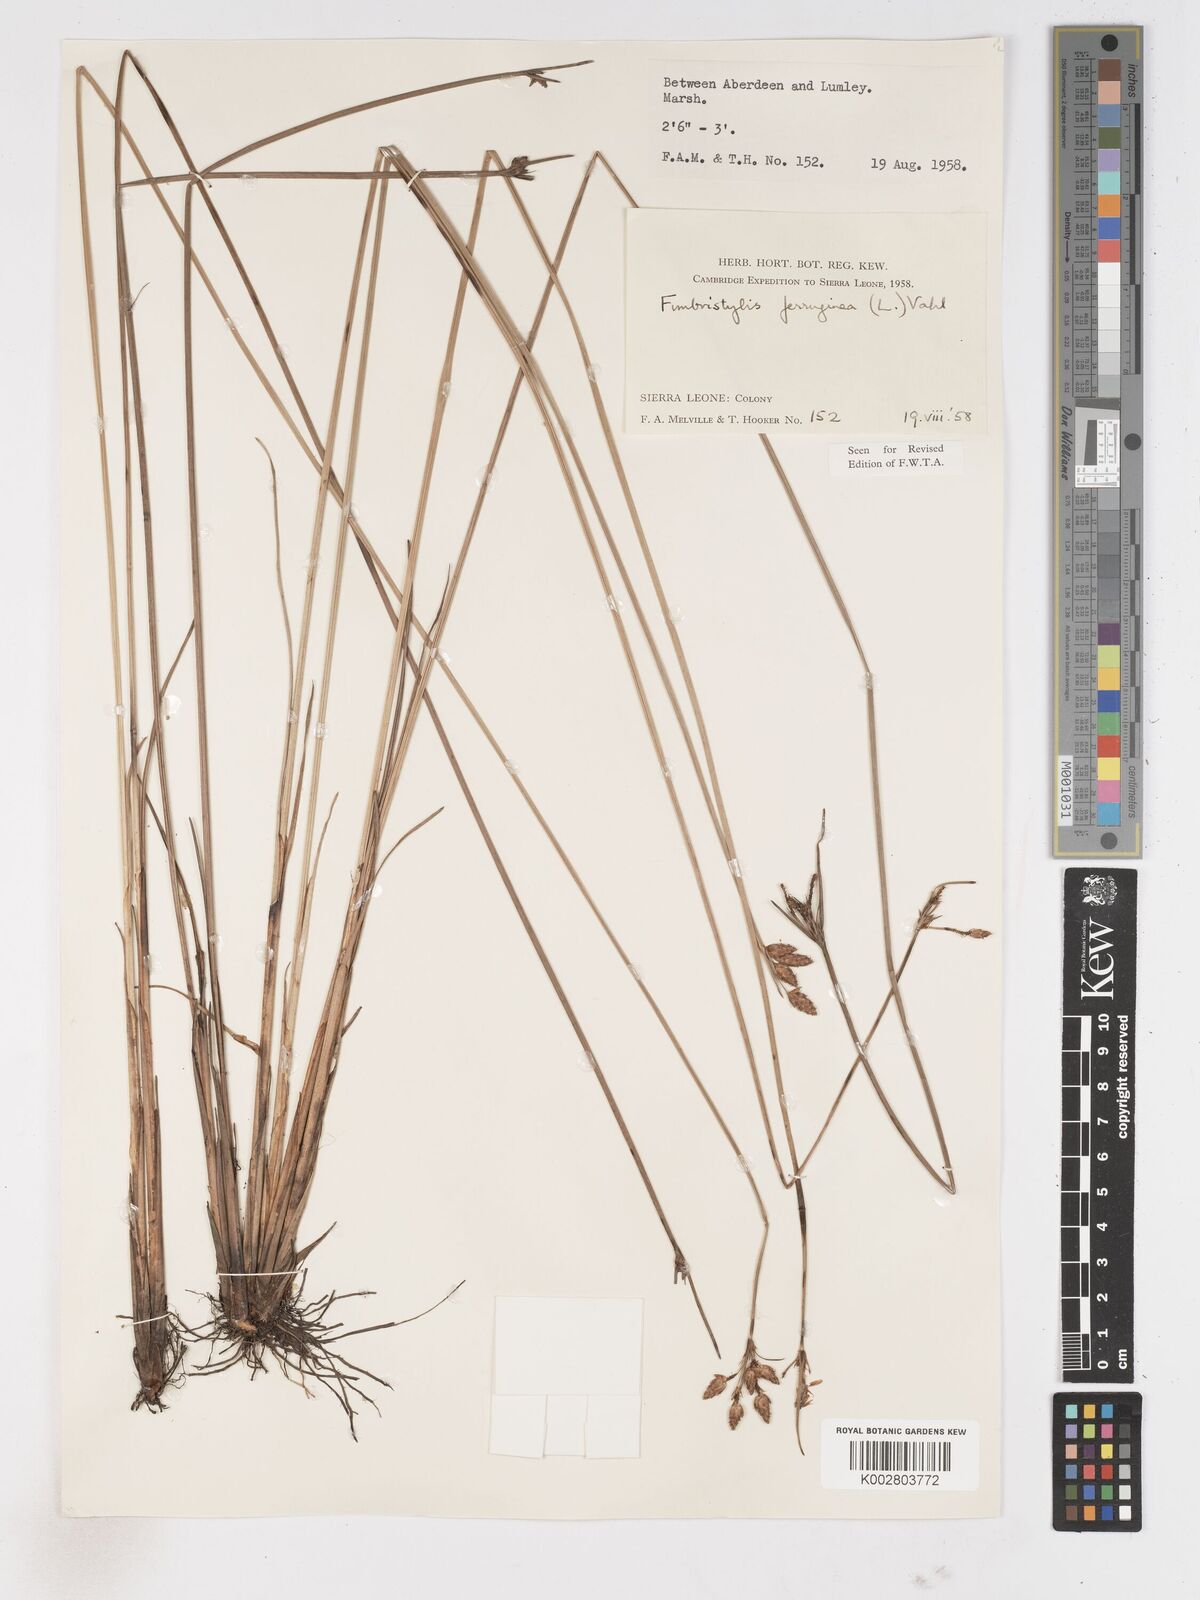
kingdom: Plantae
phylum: Tracheophyta
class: Liliopsida
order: Poales
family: Cyperaceae
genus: Fimbristylis
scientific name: Fimbristylis ferruginea
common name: West indian fimbry
